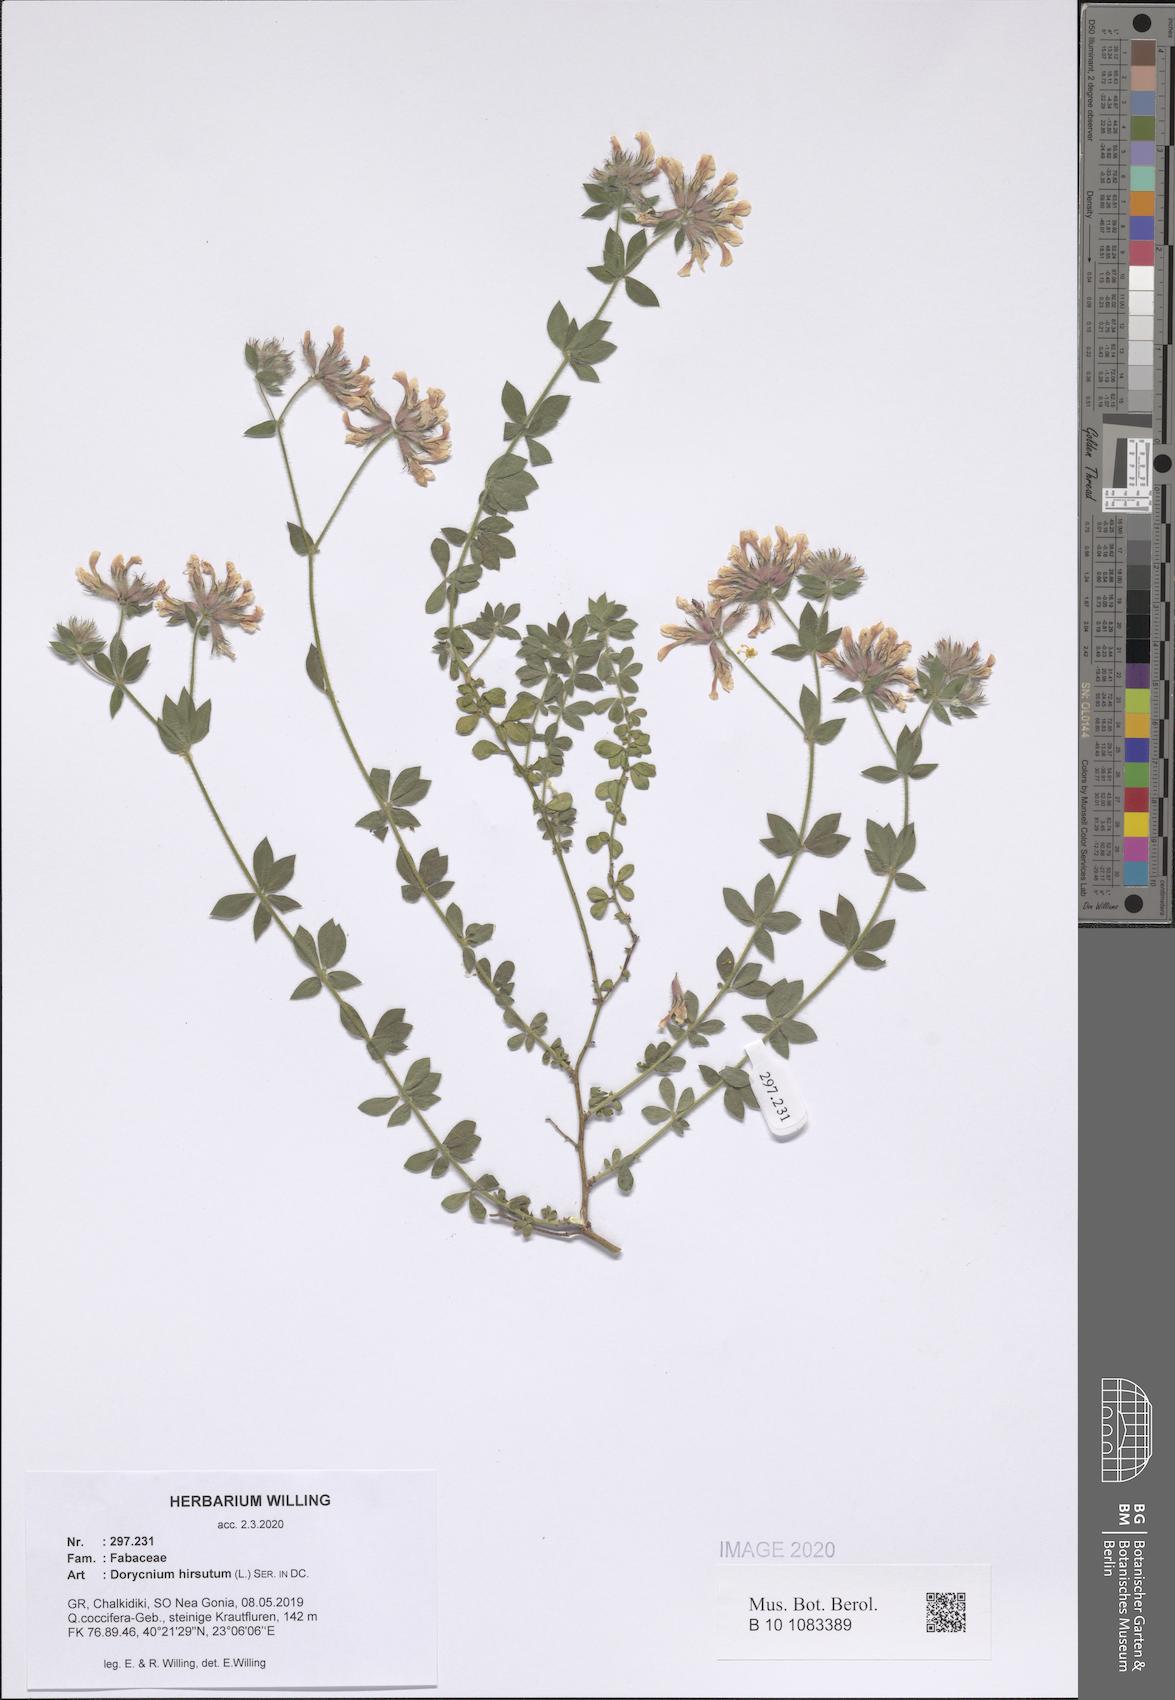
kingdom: Plantae
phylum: Tracheophyta
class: Magnoliopsida
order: Fabales
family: Fabaceae
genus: Lotus
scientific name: Lotus hirsutus
